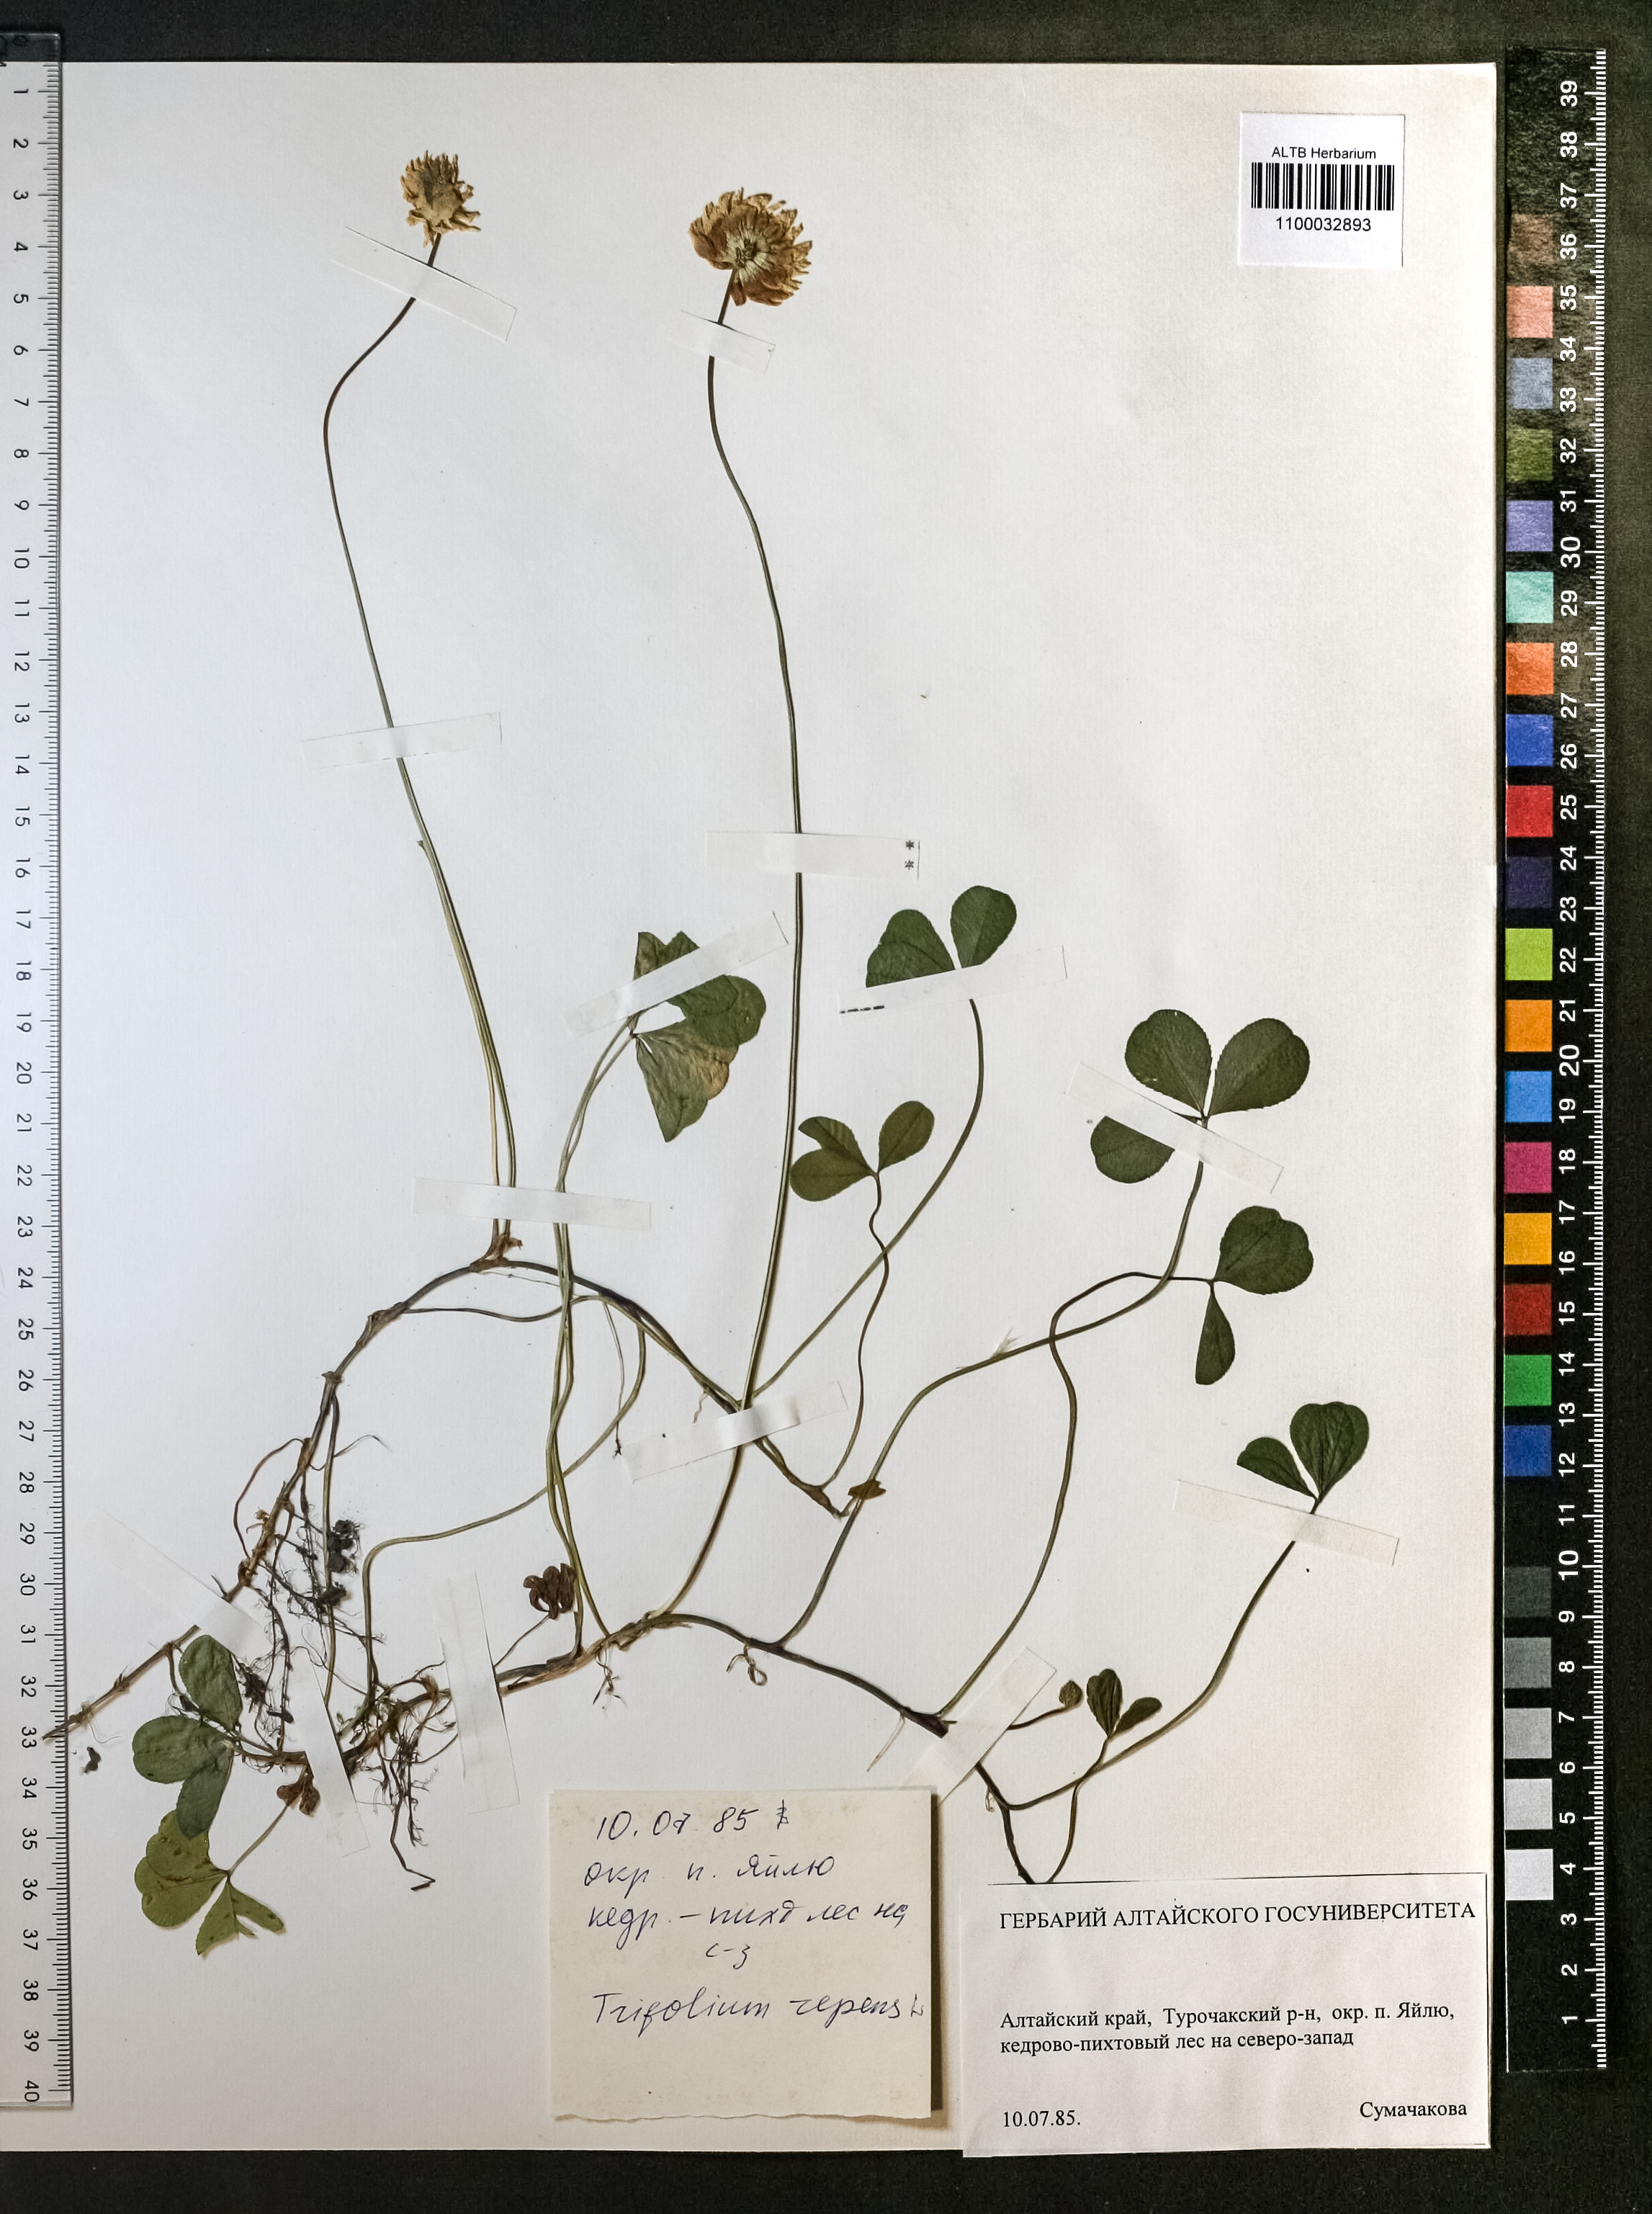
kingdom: Plantae
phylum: Tracheophyta
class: Magnoliopsida
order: Fabales
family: Fabaceae
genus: Trifolium
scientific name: Trifolium repens
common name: White clover
